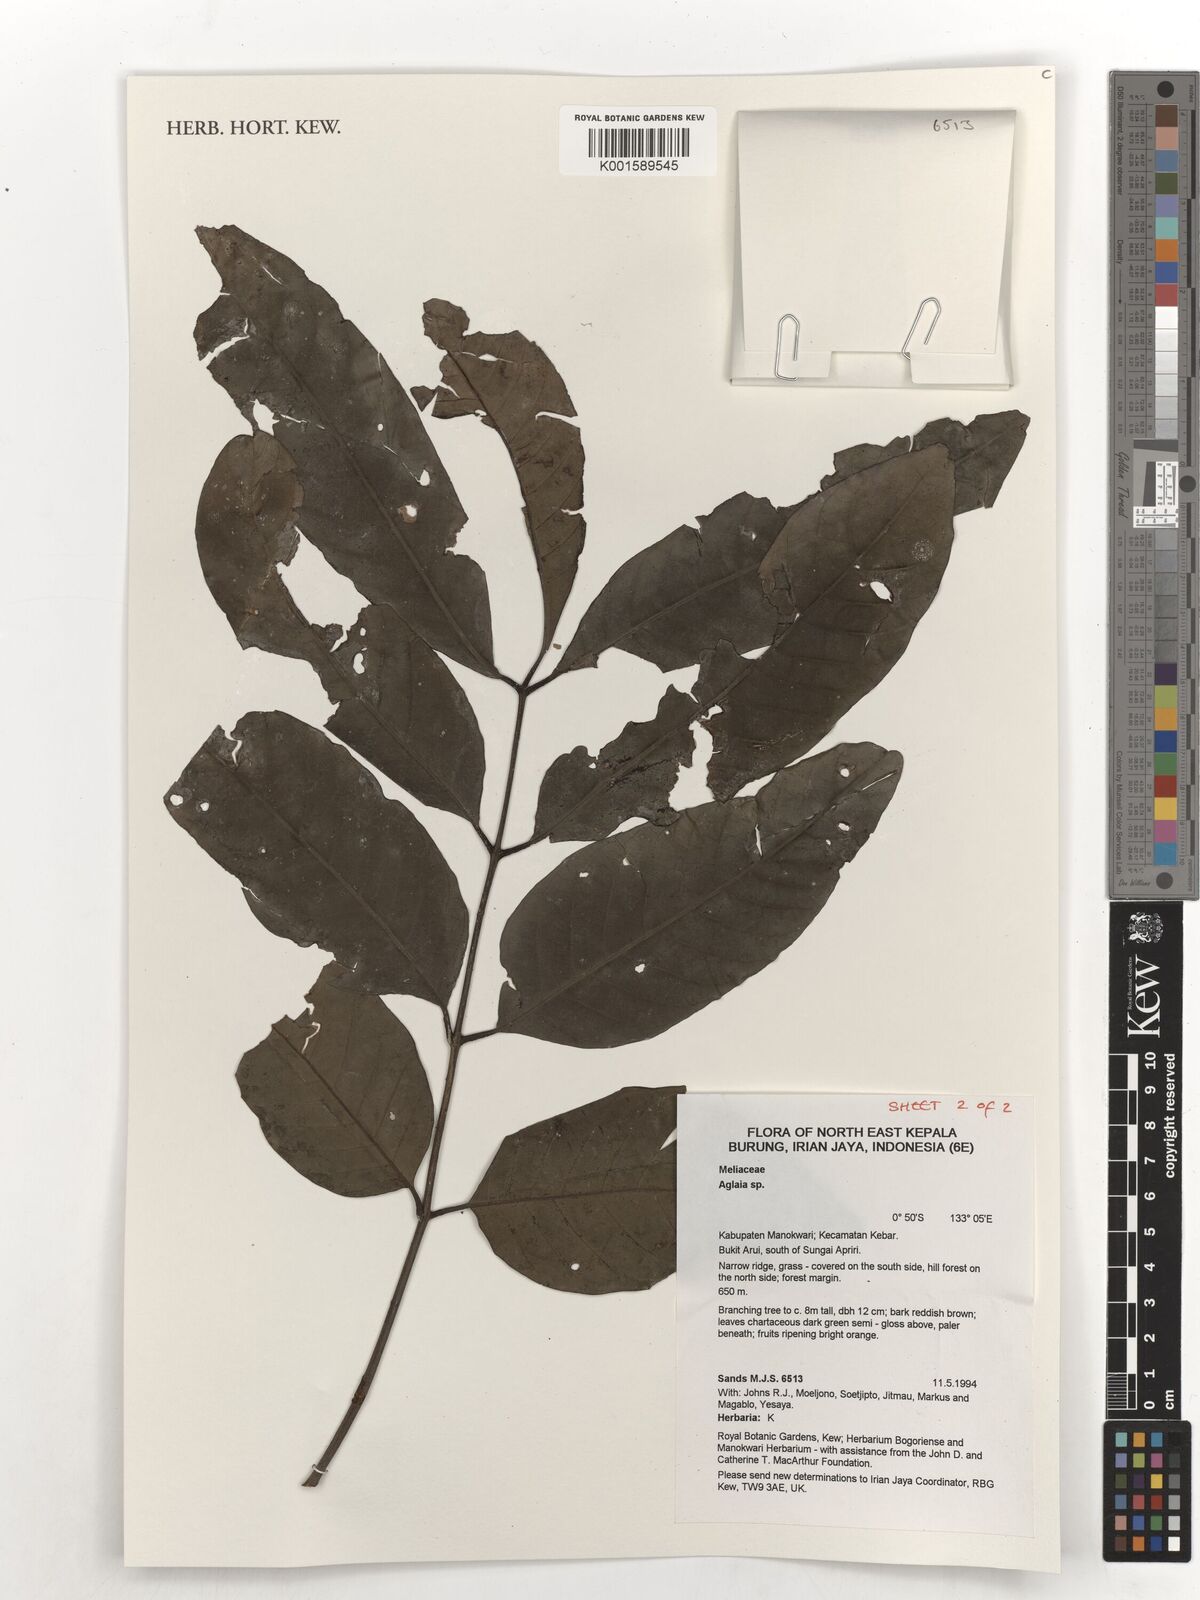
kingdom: Plantae
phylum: Tracheophyta
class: Magnoliopsida
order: Sapindales
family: Meliaceae
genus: Aglaia
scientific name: Aglaia
